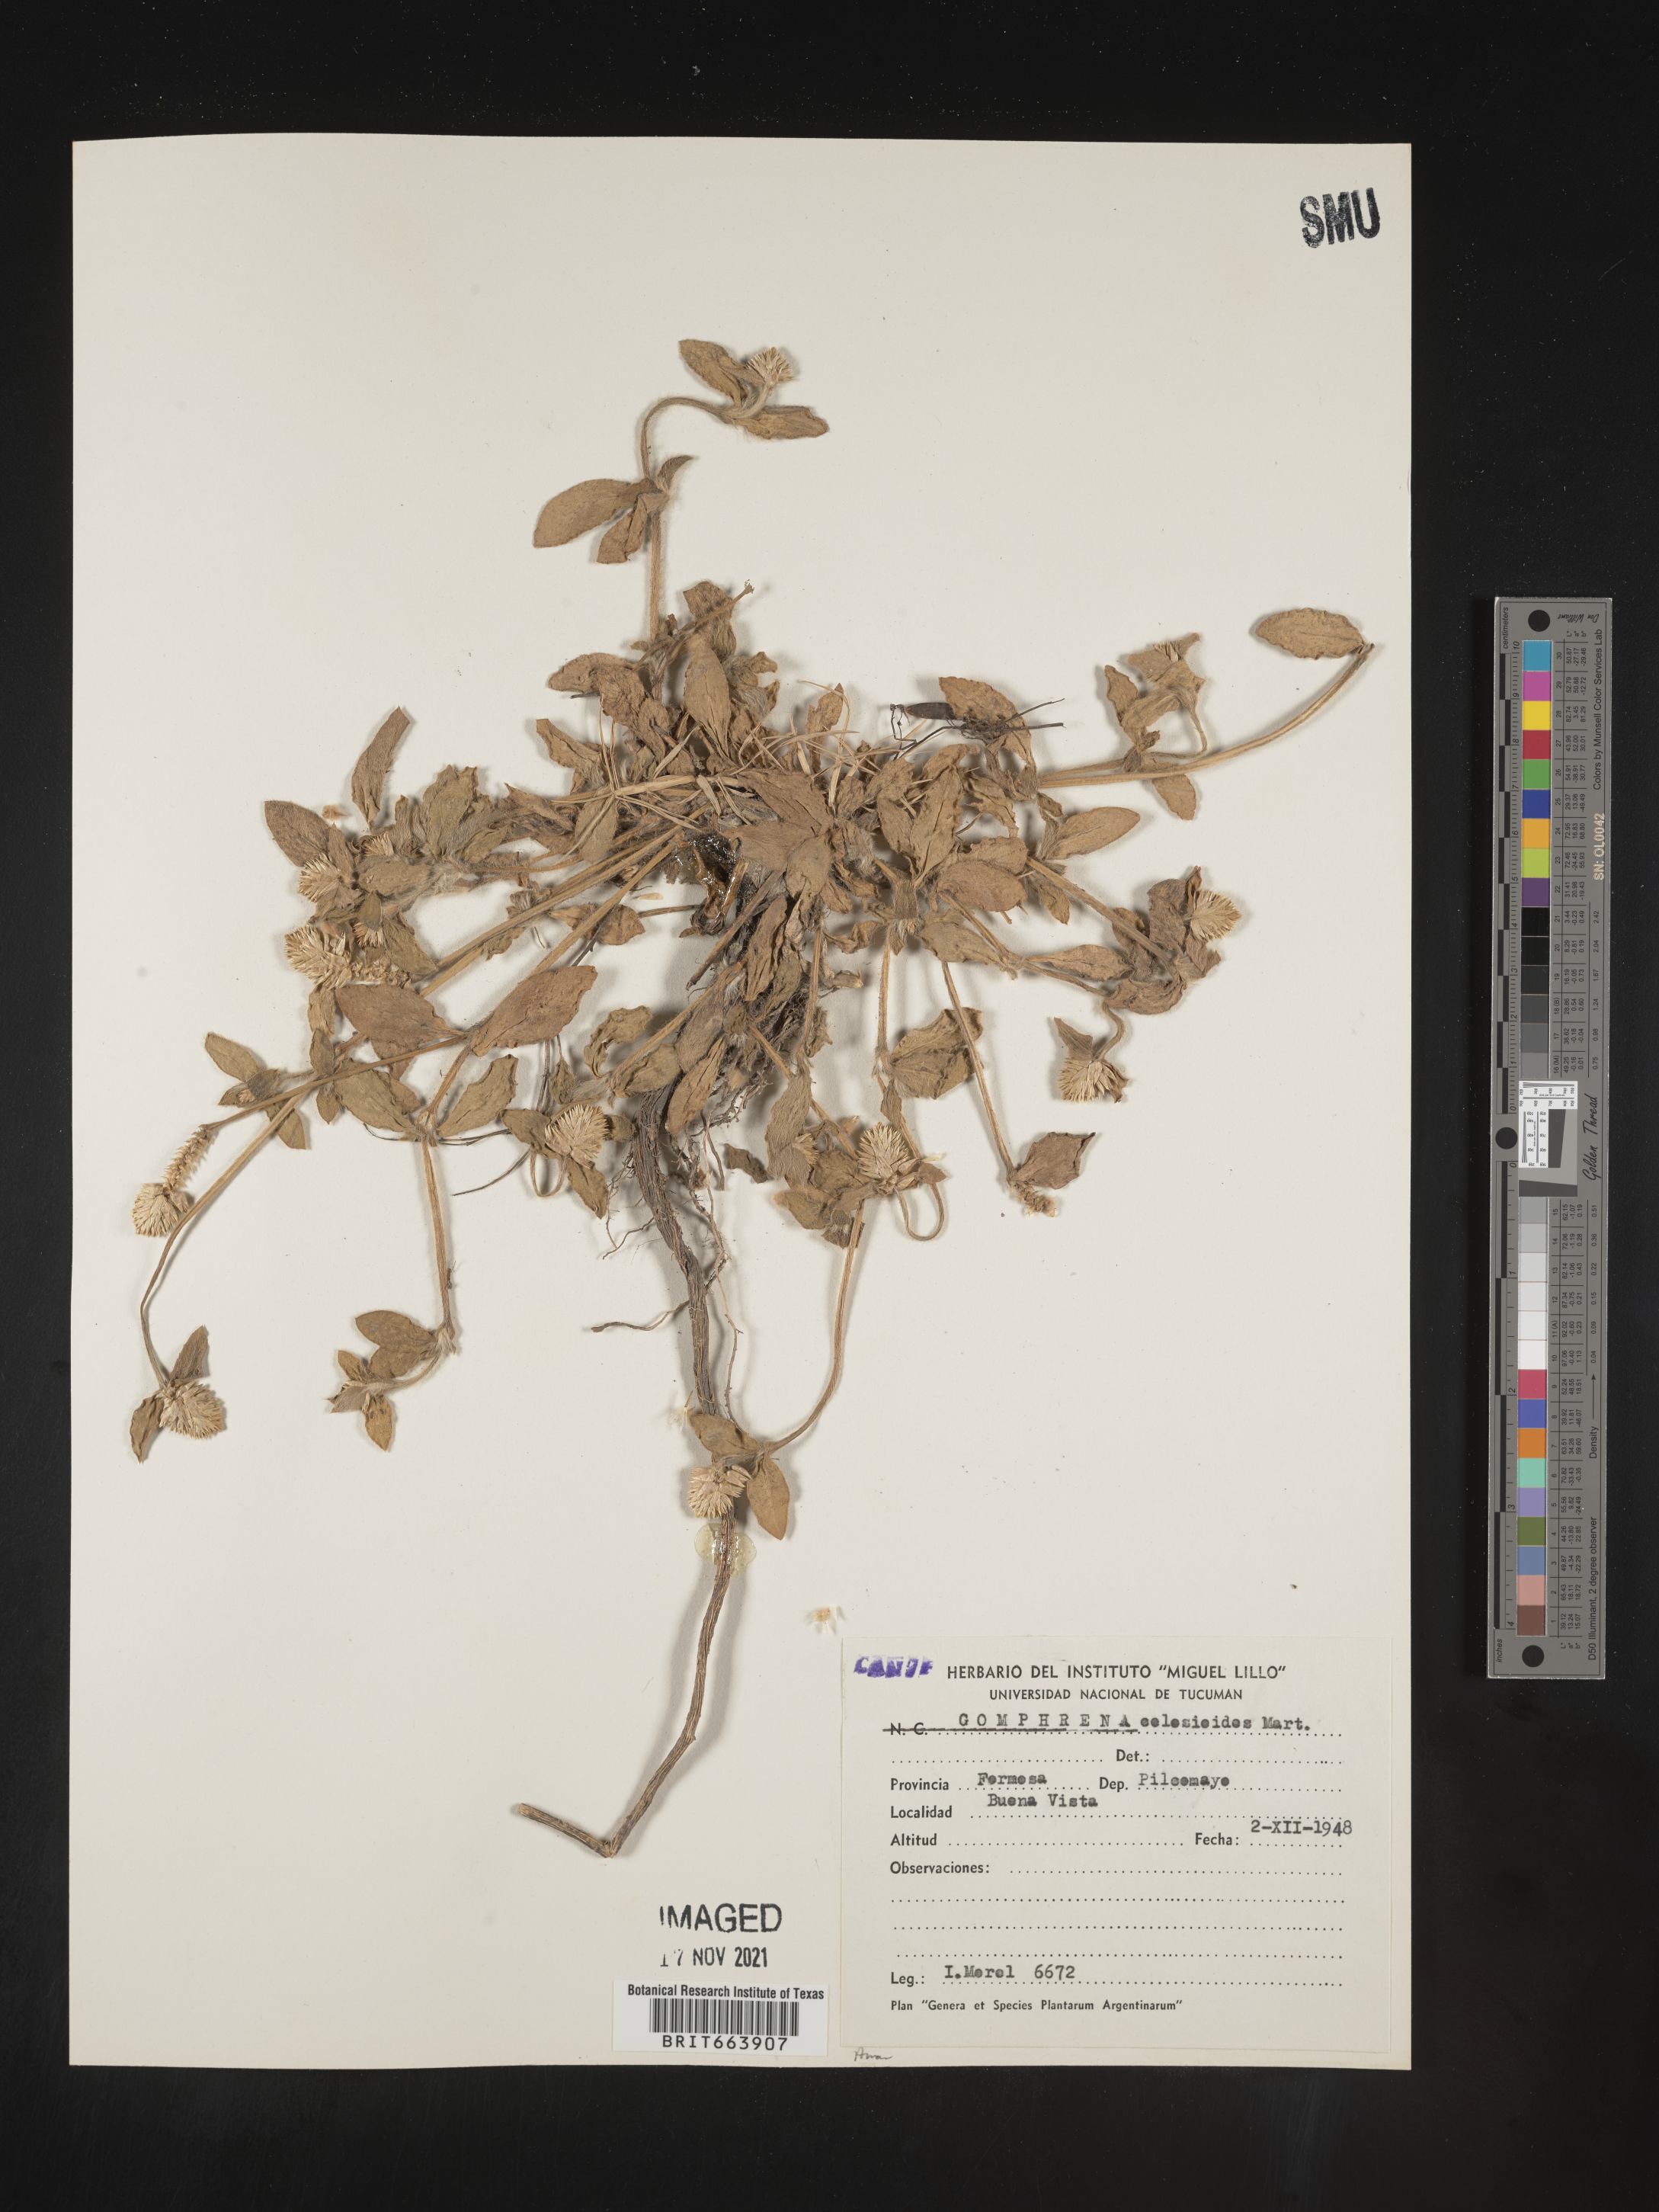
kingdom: Plantae
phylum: Tracheophyta
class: Magnoliopsida
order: Caryophyllales
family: Amaranthaceae
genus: Gomphrena
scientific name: Gomphrena
